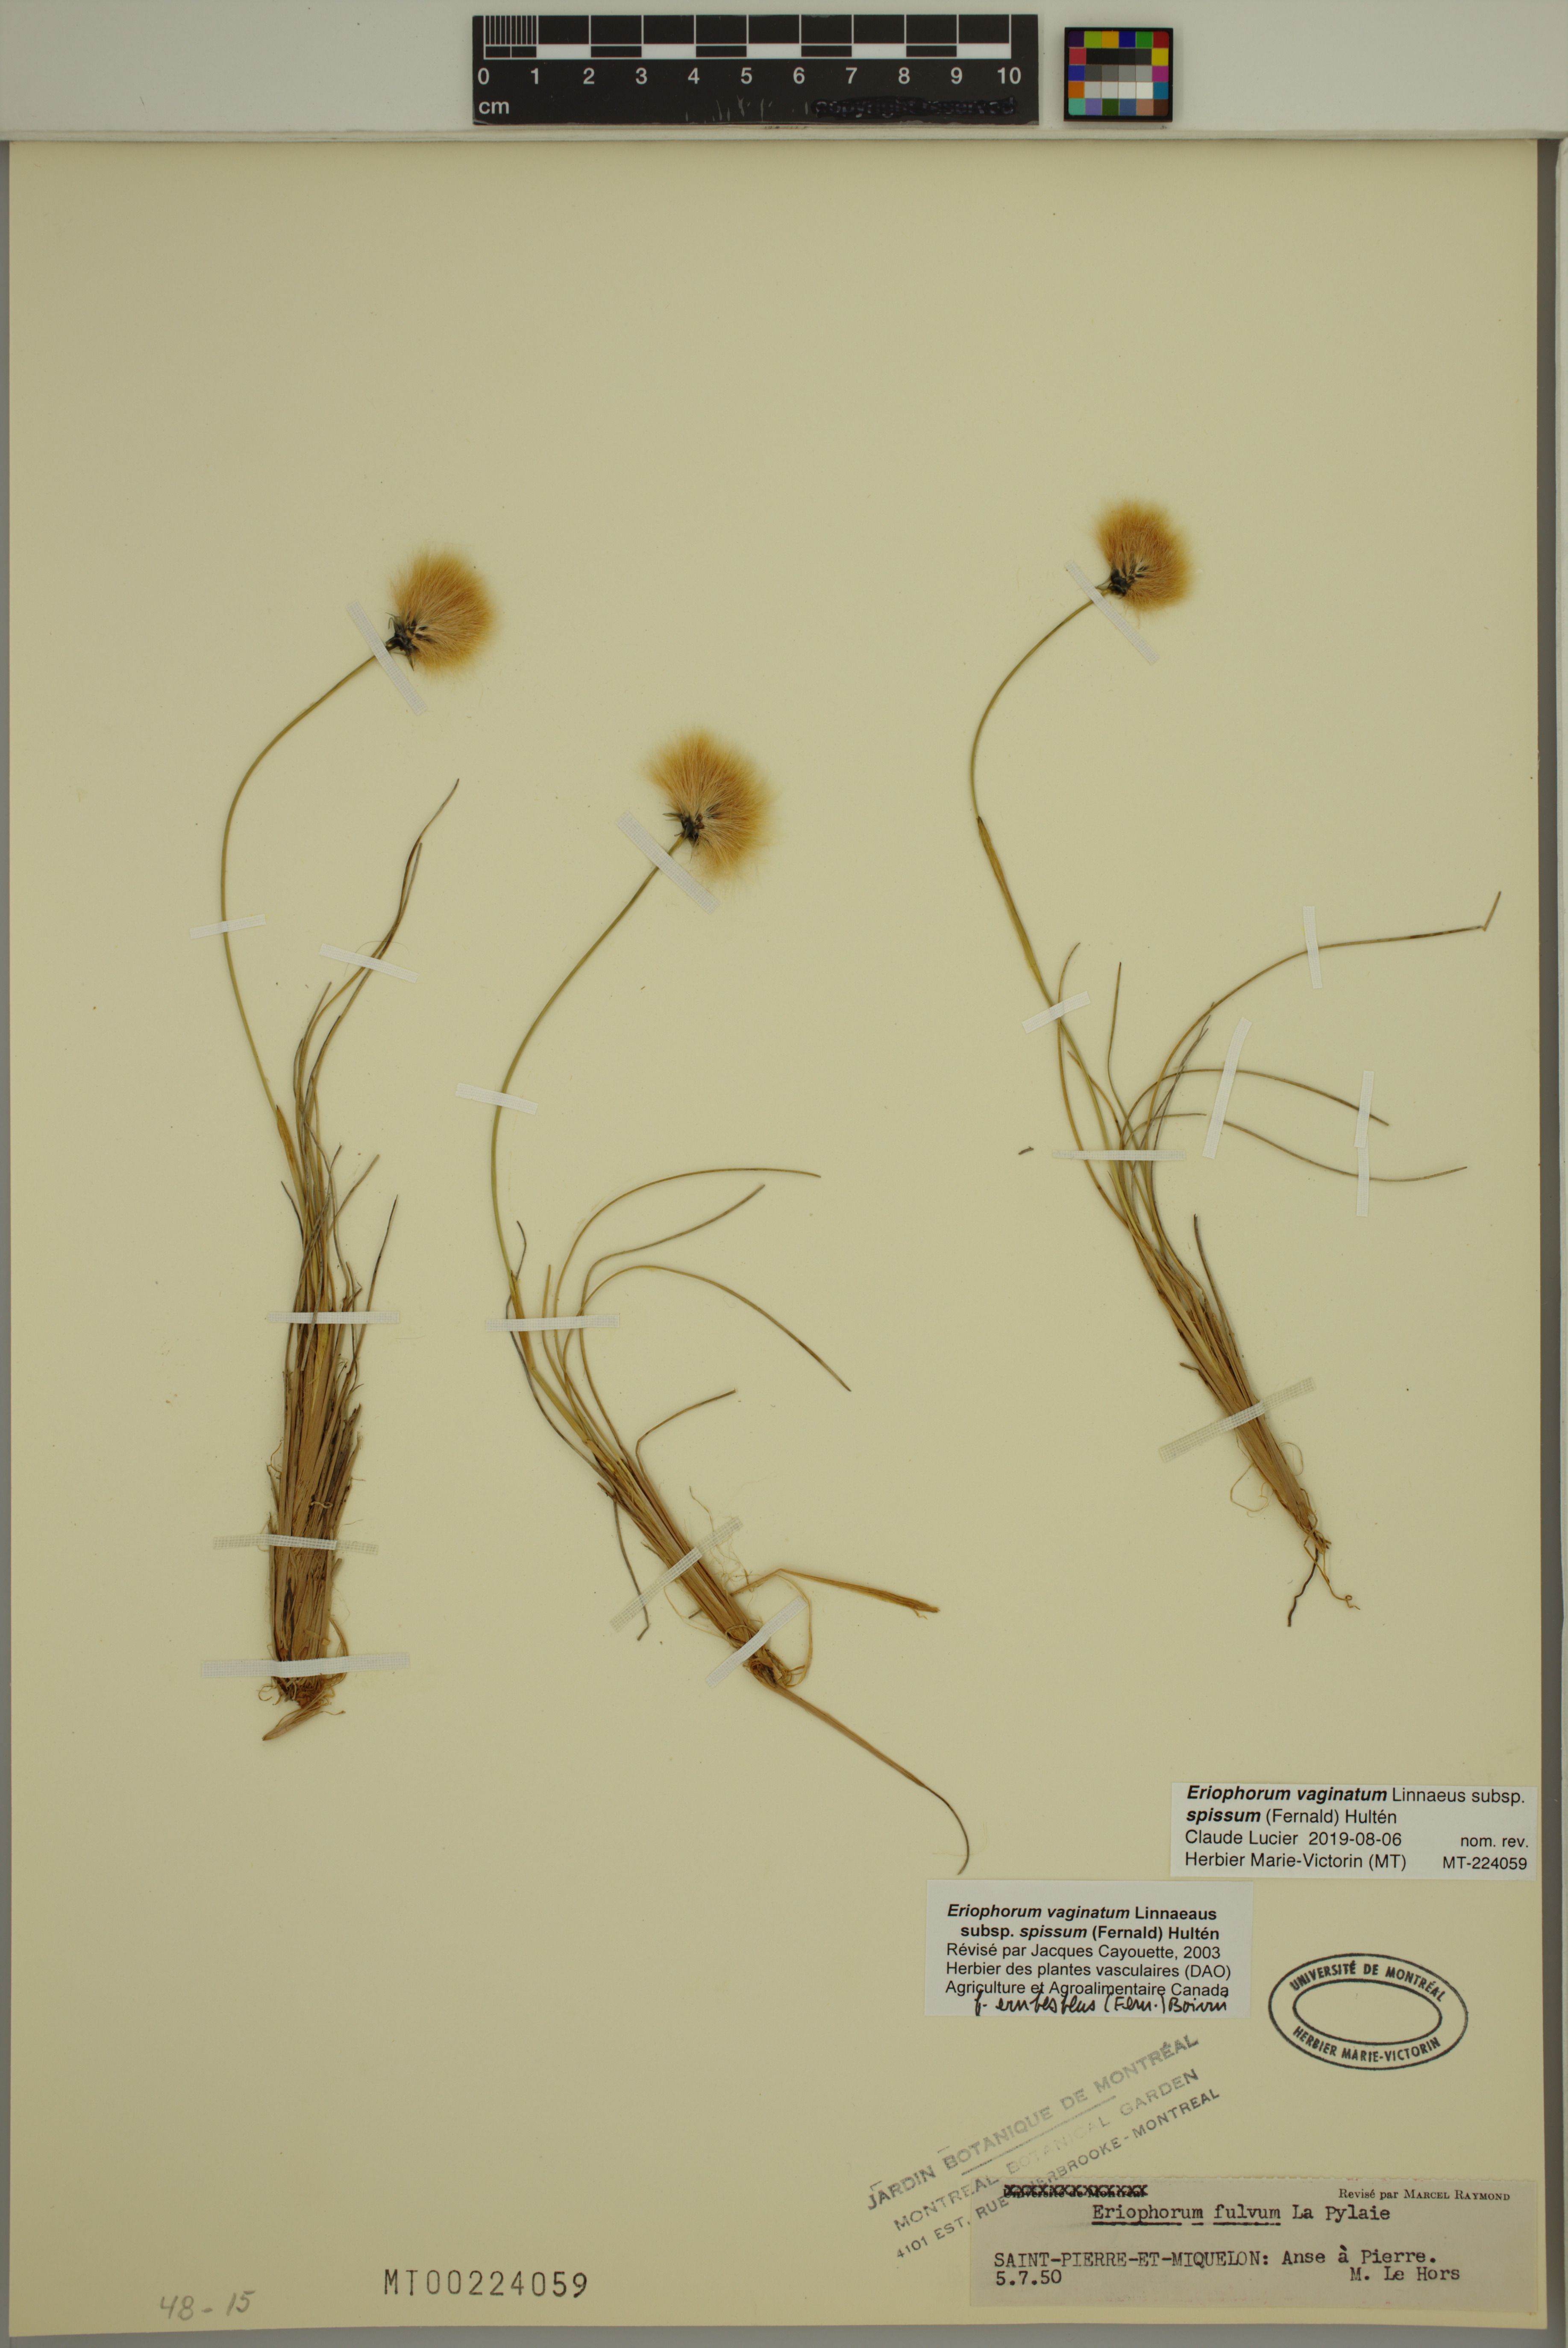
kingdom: Plantae
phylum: Tracheophyta
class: Liliopsida
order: Poales
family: Cyperaceae
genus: Eriophorum
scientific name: Eriophorum vaginatum
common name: Hare's-tail cottongrass
